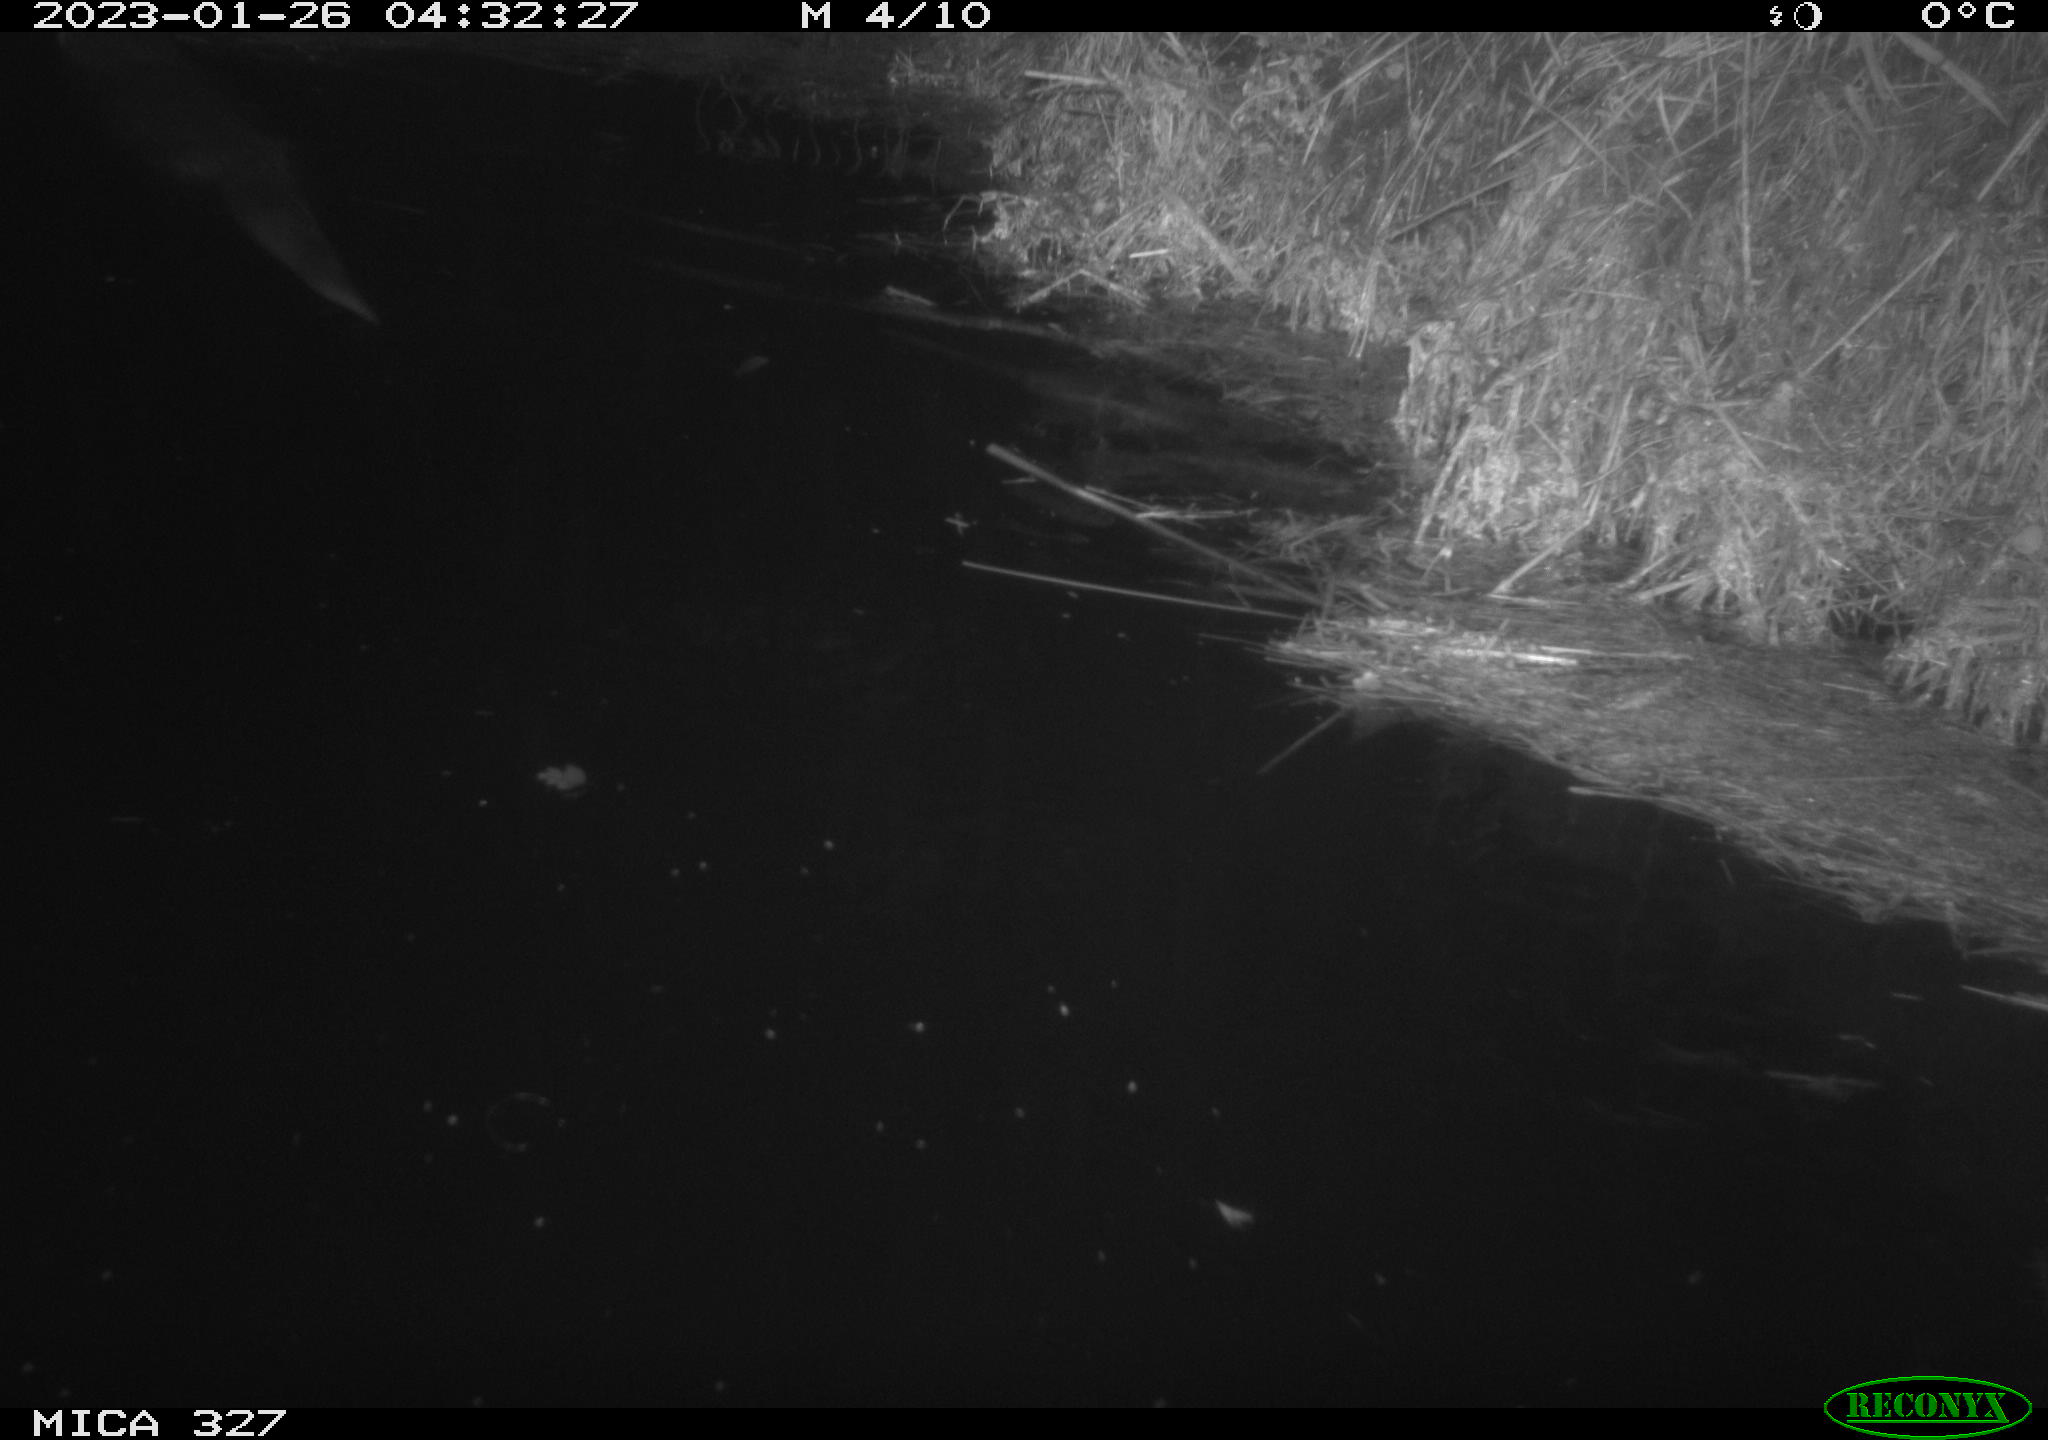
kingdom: Animalia
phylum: Chordata
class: Mammalia
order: Carnivora
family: Mustelidae
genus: Lutra
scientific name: Lutra lutra
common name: European otter
